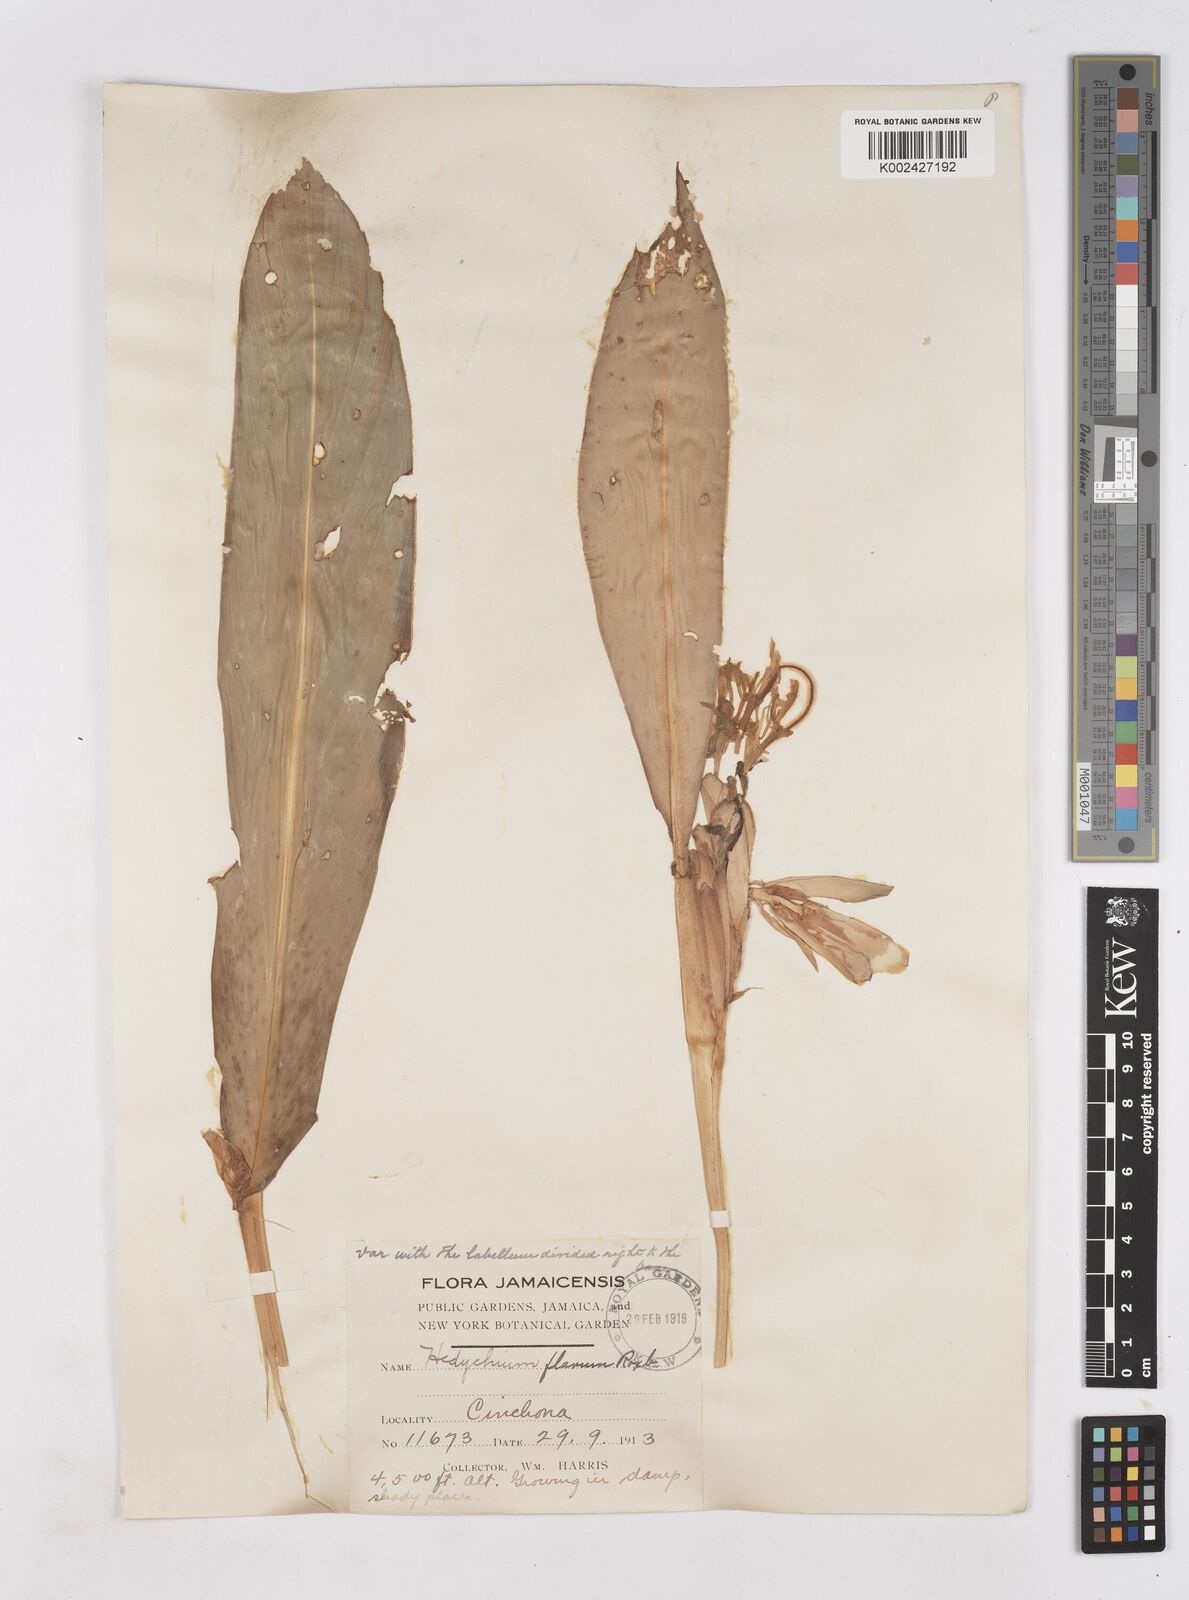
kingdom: Plantae
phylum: Tracheophyta
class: Liliopsida
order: Zingiberales
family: Zingiberaceae
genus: Hedychium
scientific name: Hedychium flavum
